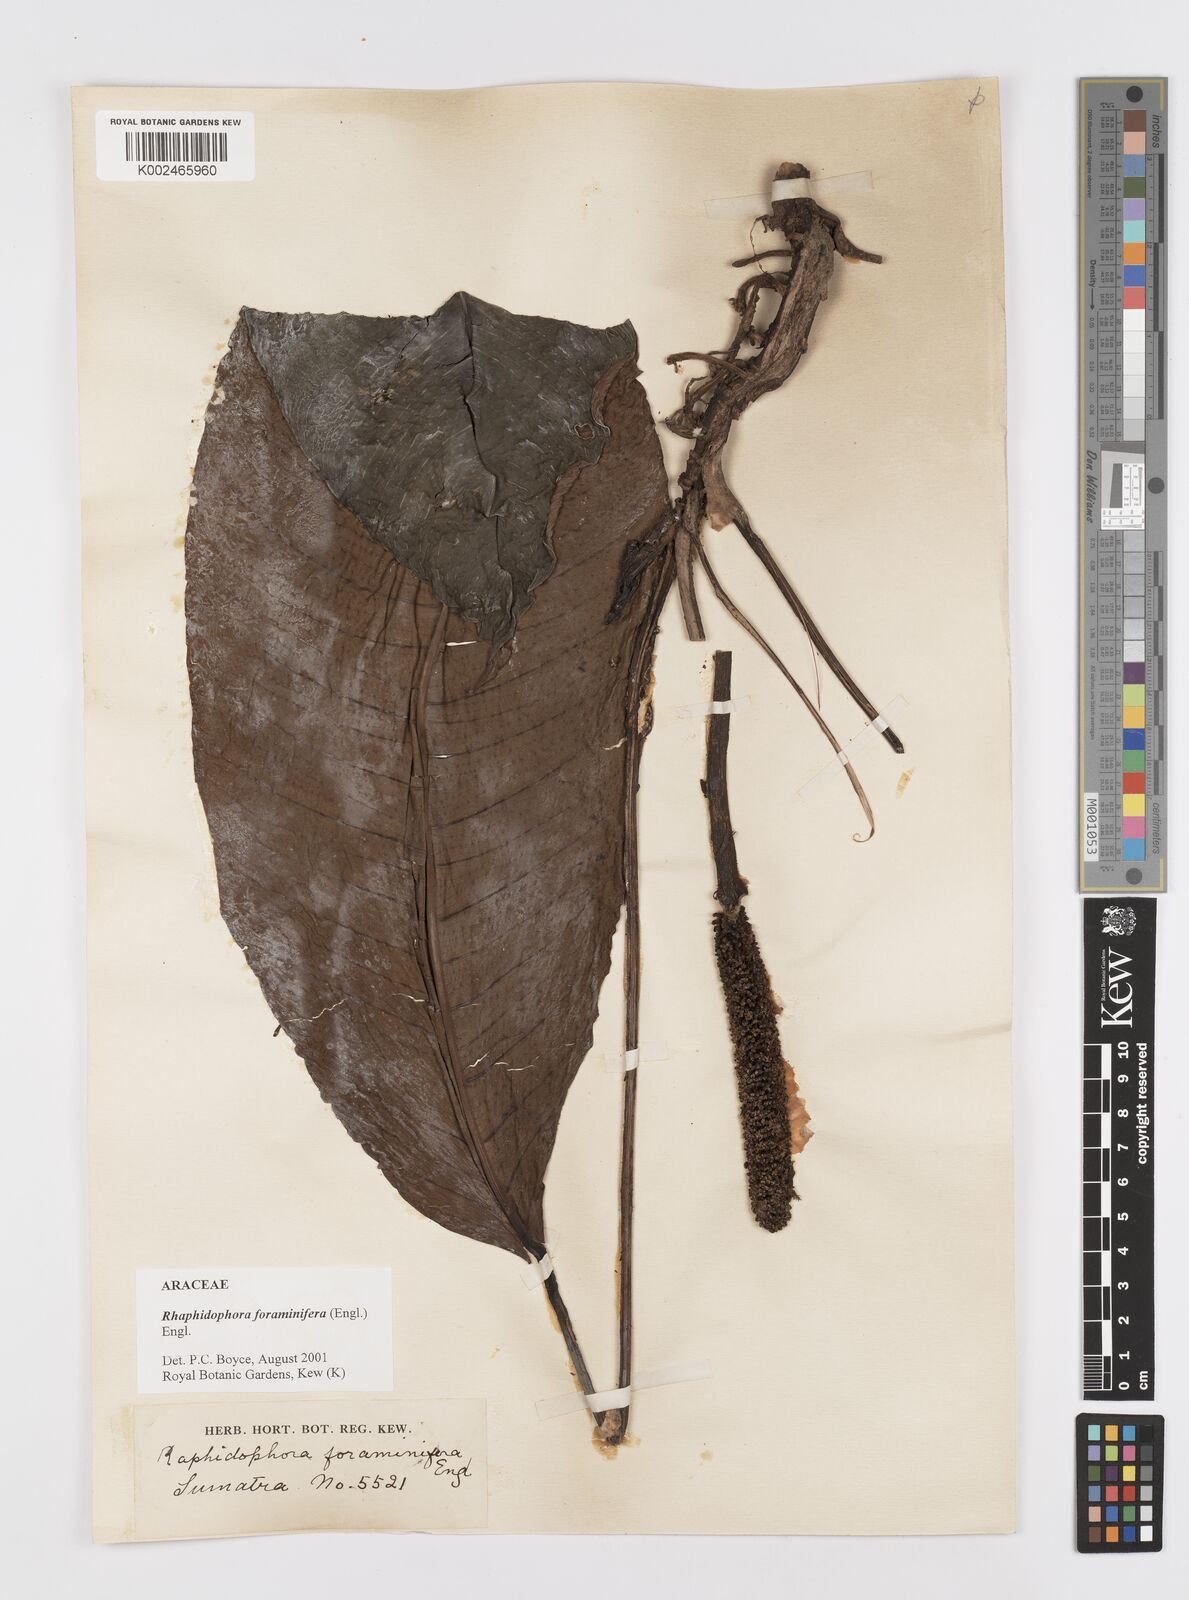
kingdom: Plantae
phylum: Tracheophyta
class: Liliopsida
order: Alismatales
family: Araceae
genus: Rhaphidophora
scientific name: Rhaphidophora foraminifera
